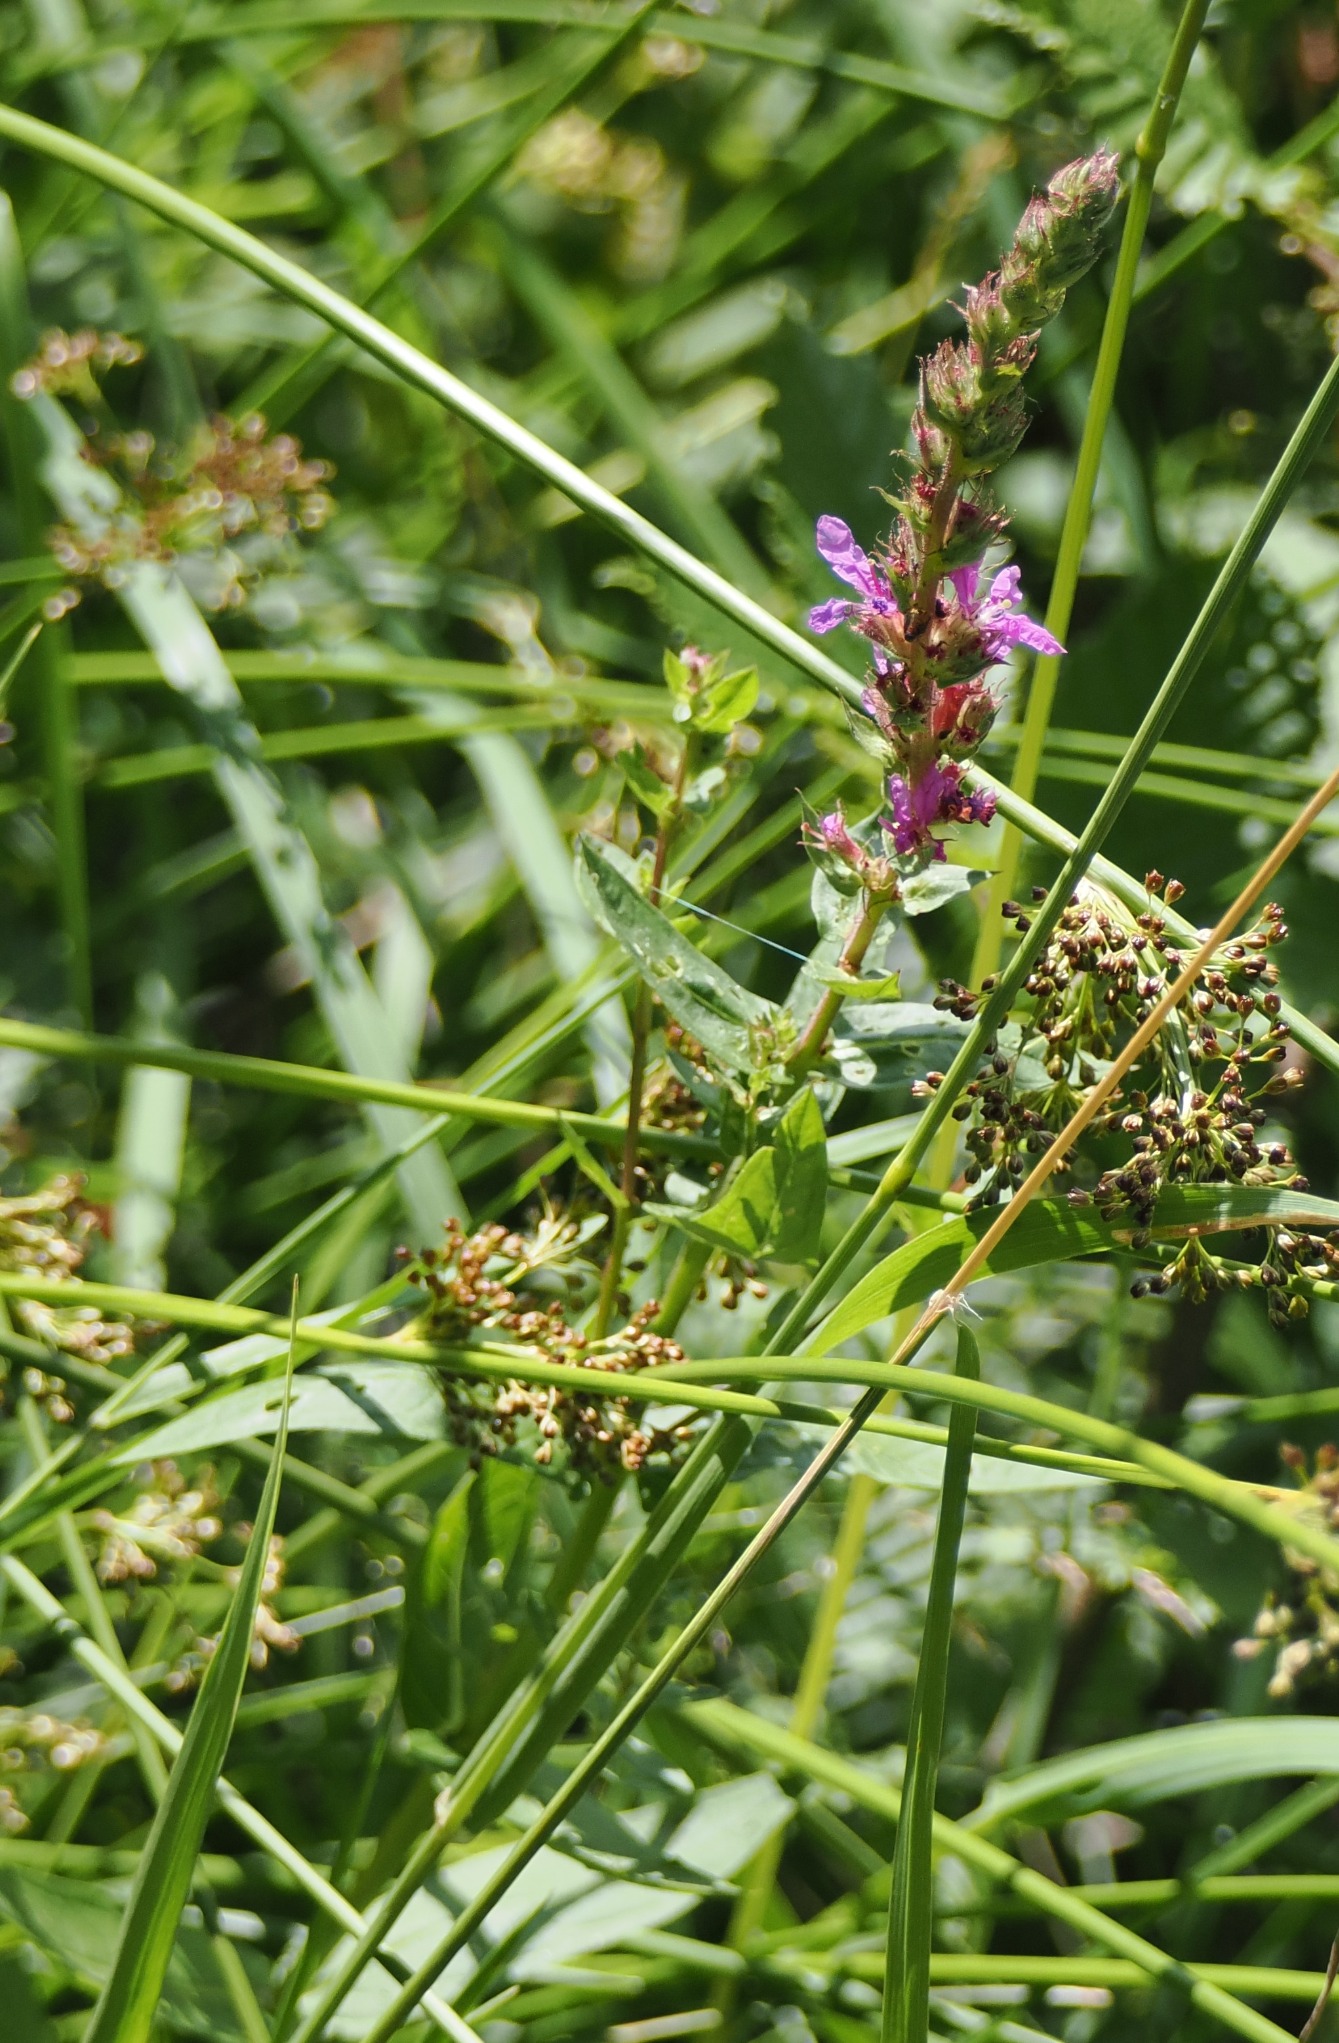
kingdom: Plantae
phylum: Tracheophyta
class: Magnoliopsida
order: Myrtales
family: Lythraceae
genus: Lythrum
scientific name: Lythrum salicaria
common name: Kattehale
